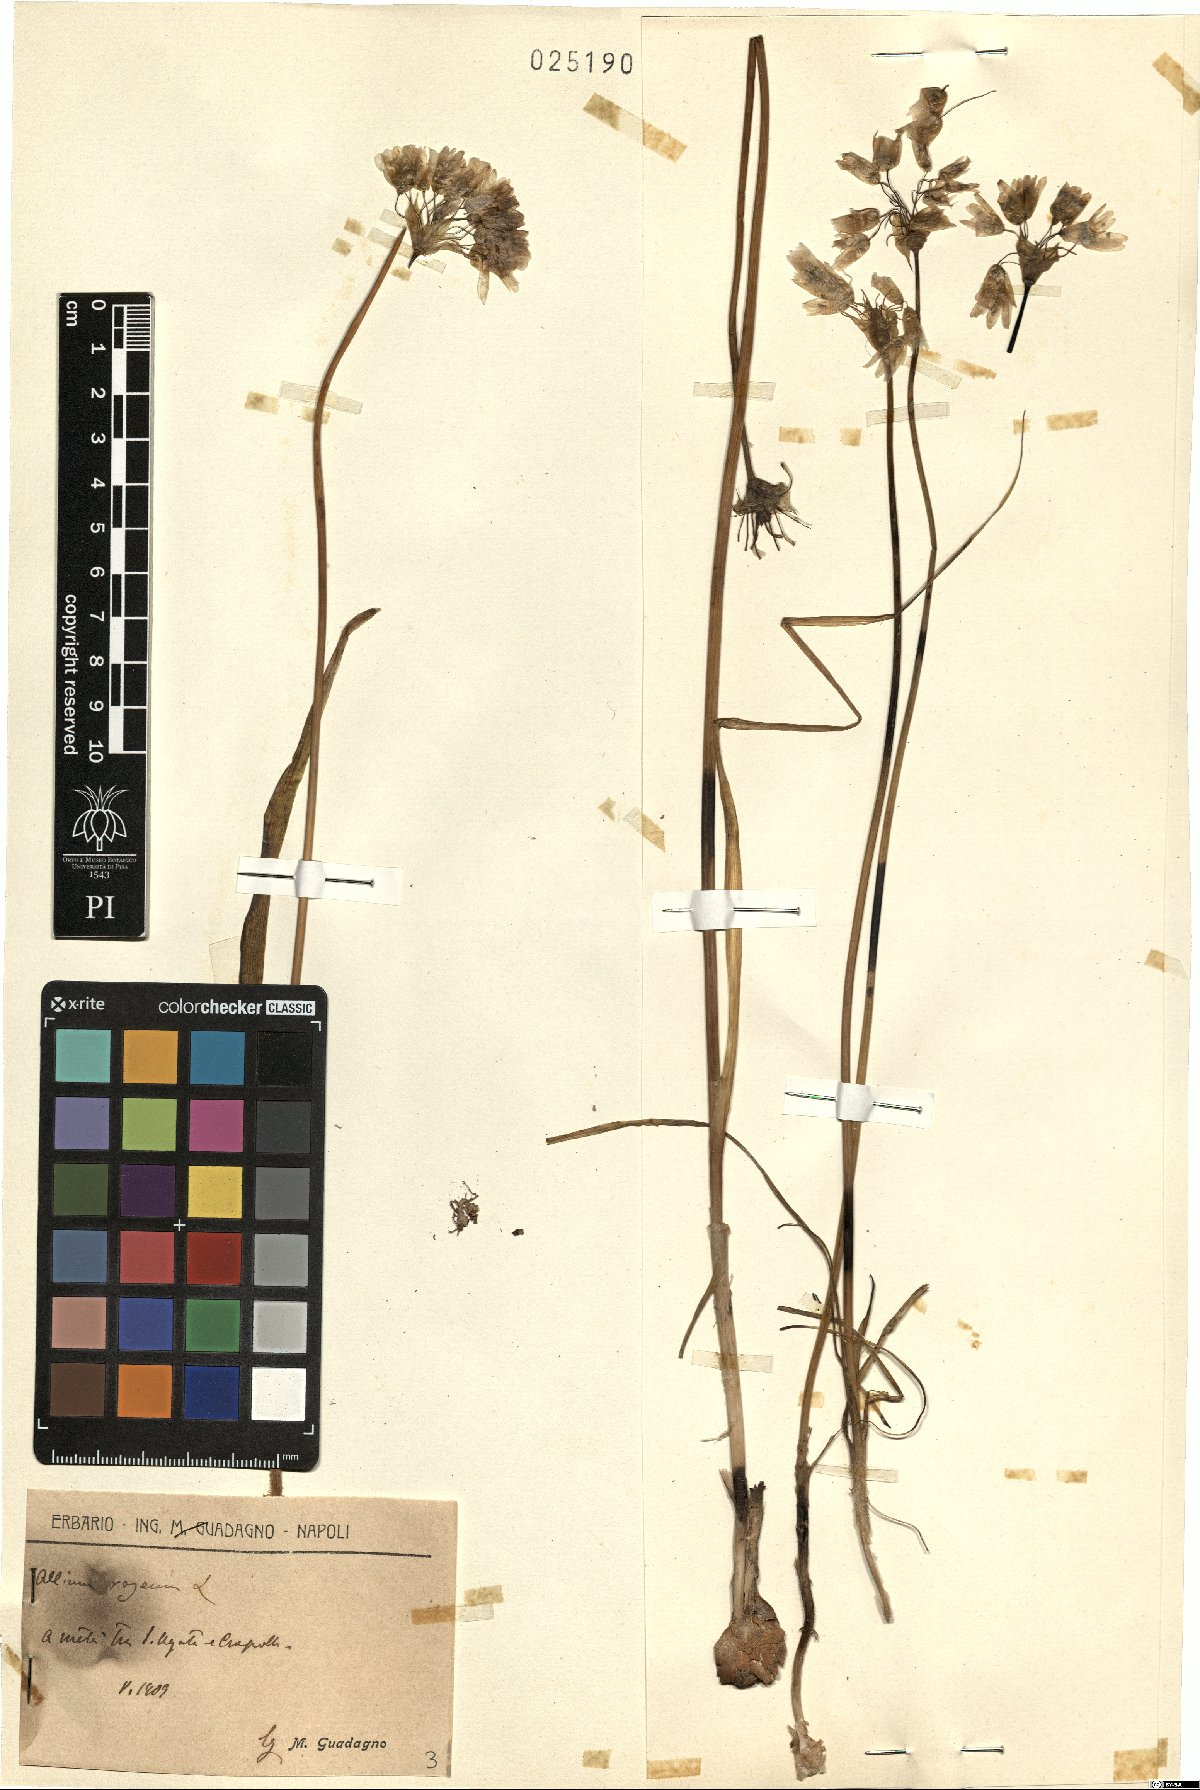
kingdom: Plantae
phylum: Tracheophyta
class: Liliopsida
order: Asparagales
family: Amaryllidaceae
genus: Allium
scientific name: Allium roseum
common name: Rosy garlic
